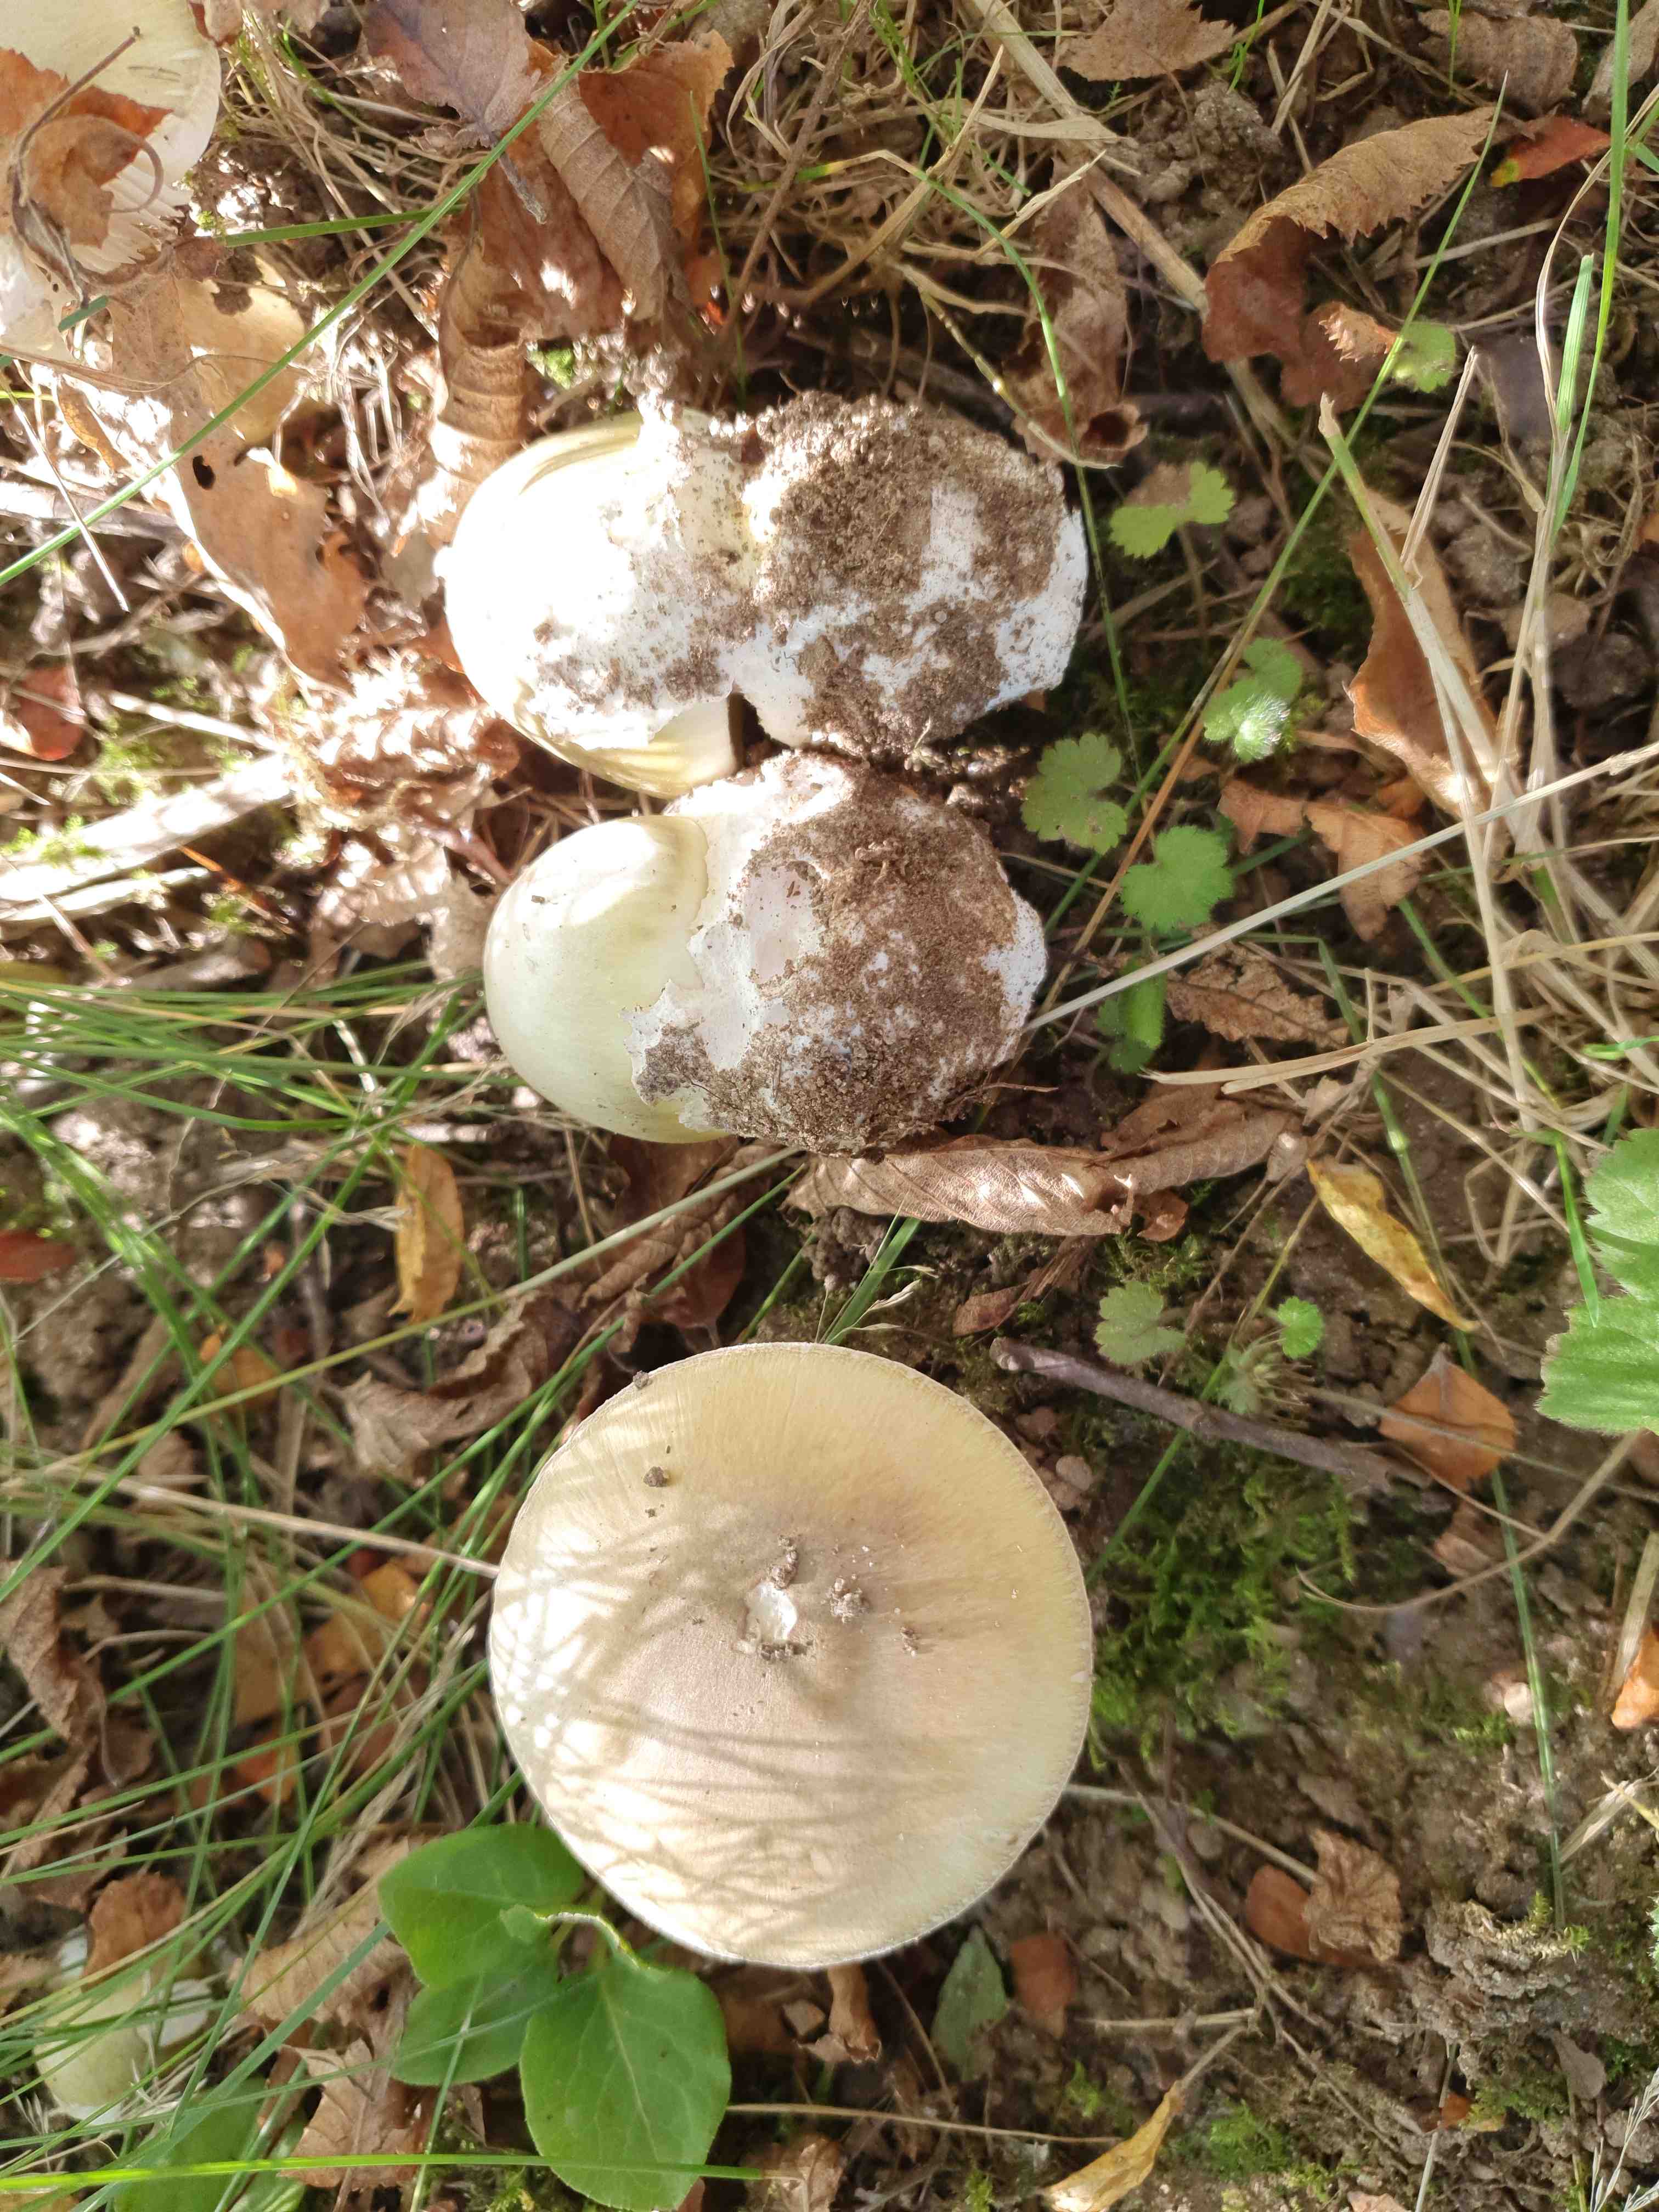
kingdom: Fungi
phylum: Basidiomycota
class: Agaricomycetes
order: Agaricales
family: Amanitaceae
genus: Amanita
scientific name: Amanita phalloides
